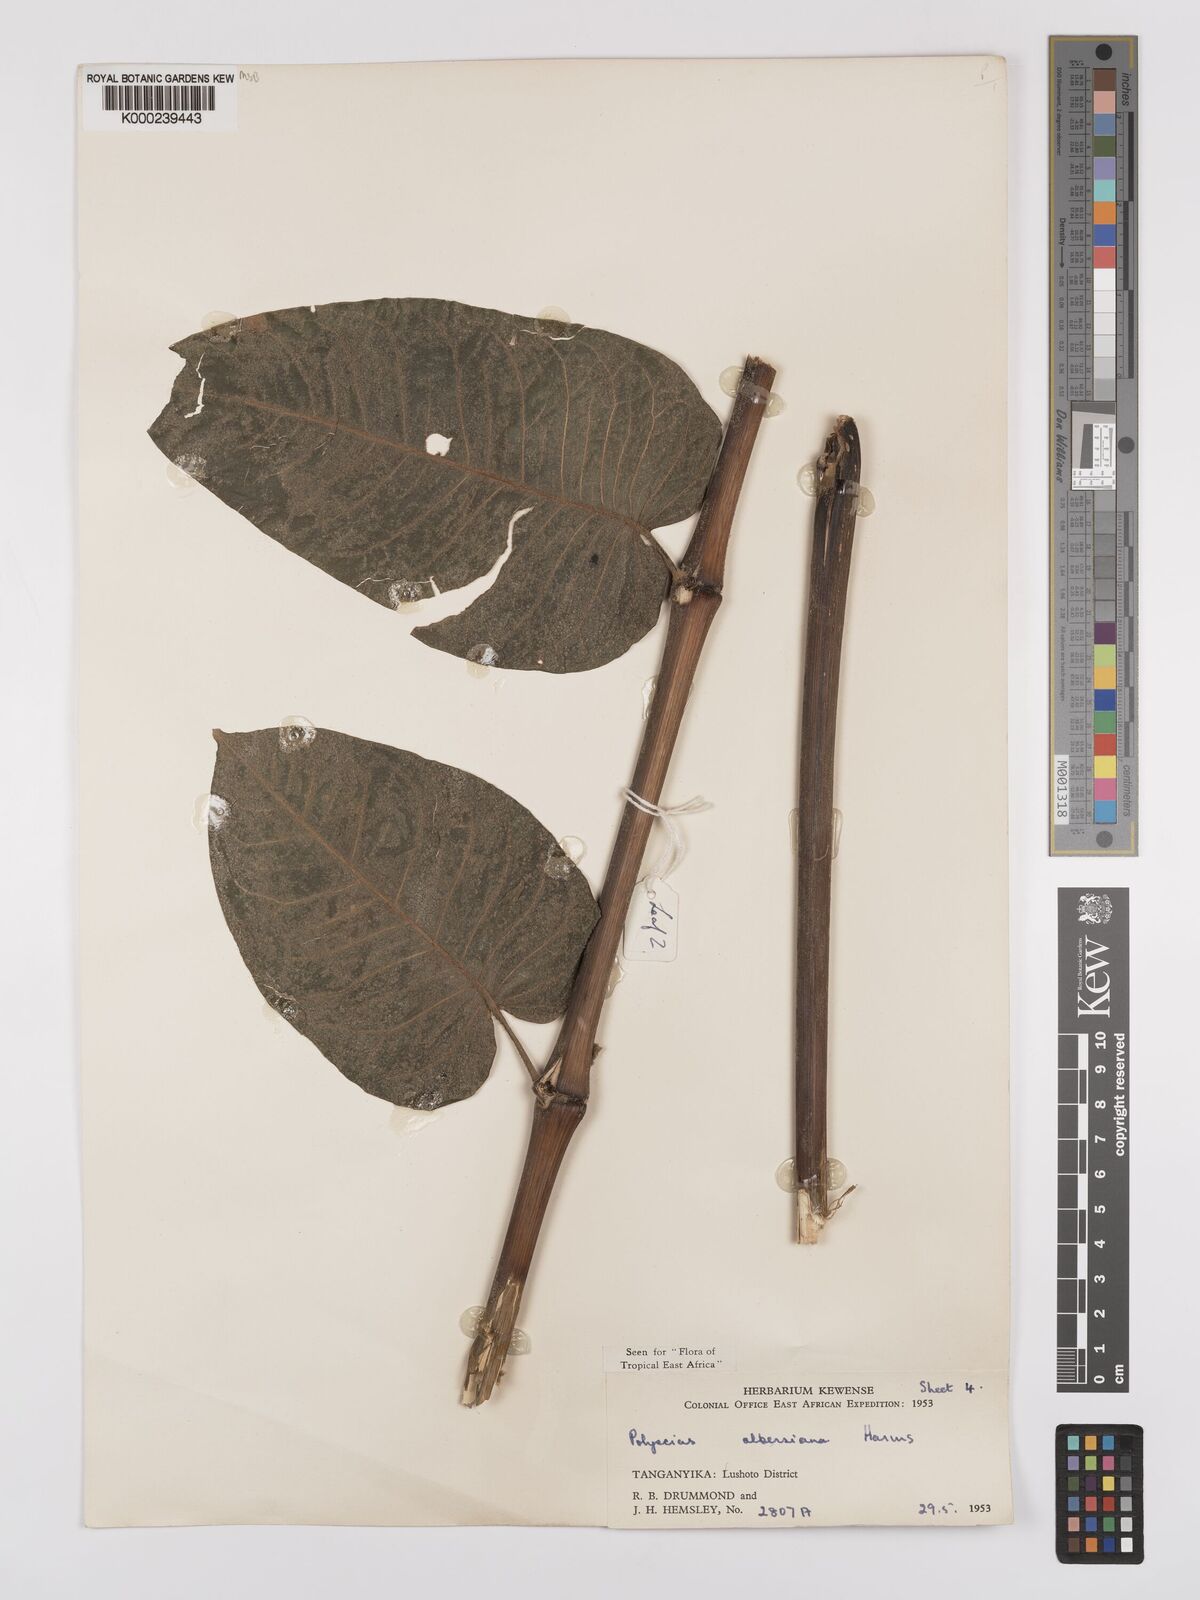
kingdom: Plantae
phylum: Tracheophyta
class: Magnoliopsida
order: Apiales
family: Araliaceae
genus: Polyscias
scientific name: Polyscias albersiana
